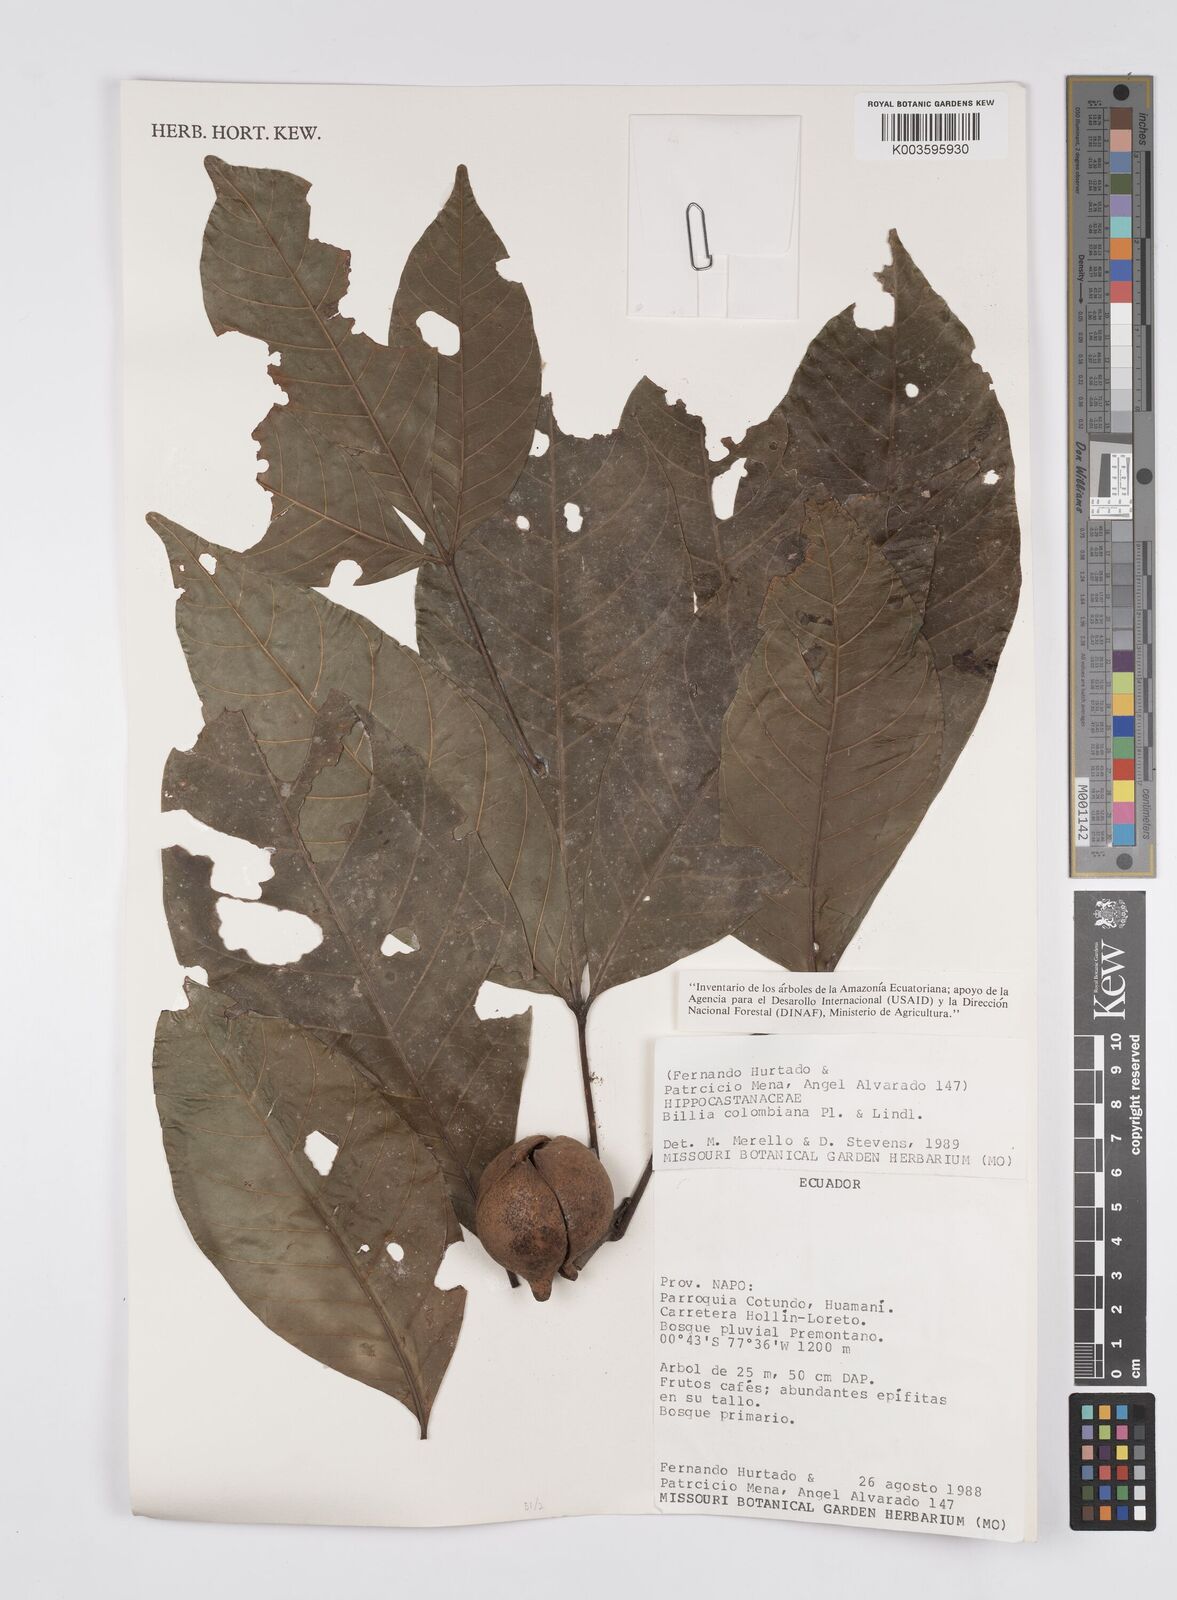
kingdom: Plantae
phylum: Tracheophyta
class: Magnoliopsida
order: Sapindales
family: Sapindaceae
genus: Billia
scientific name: Billia
